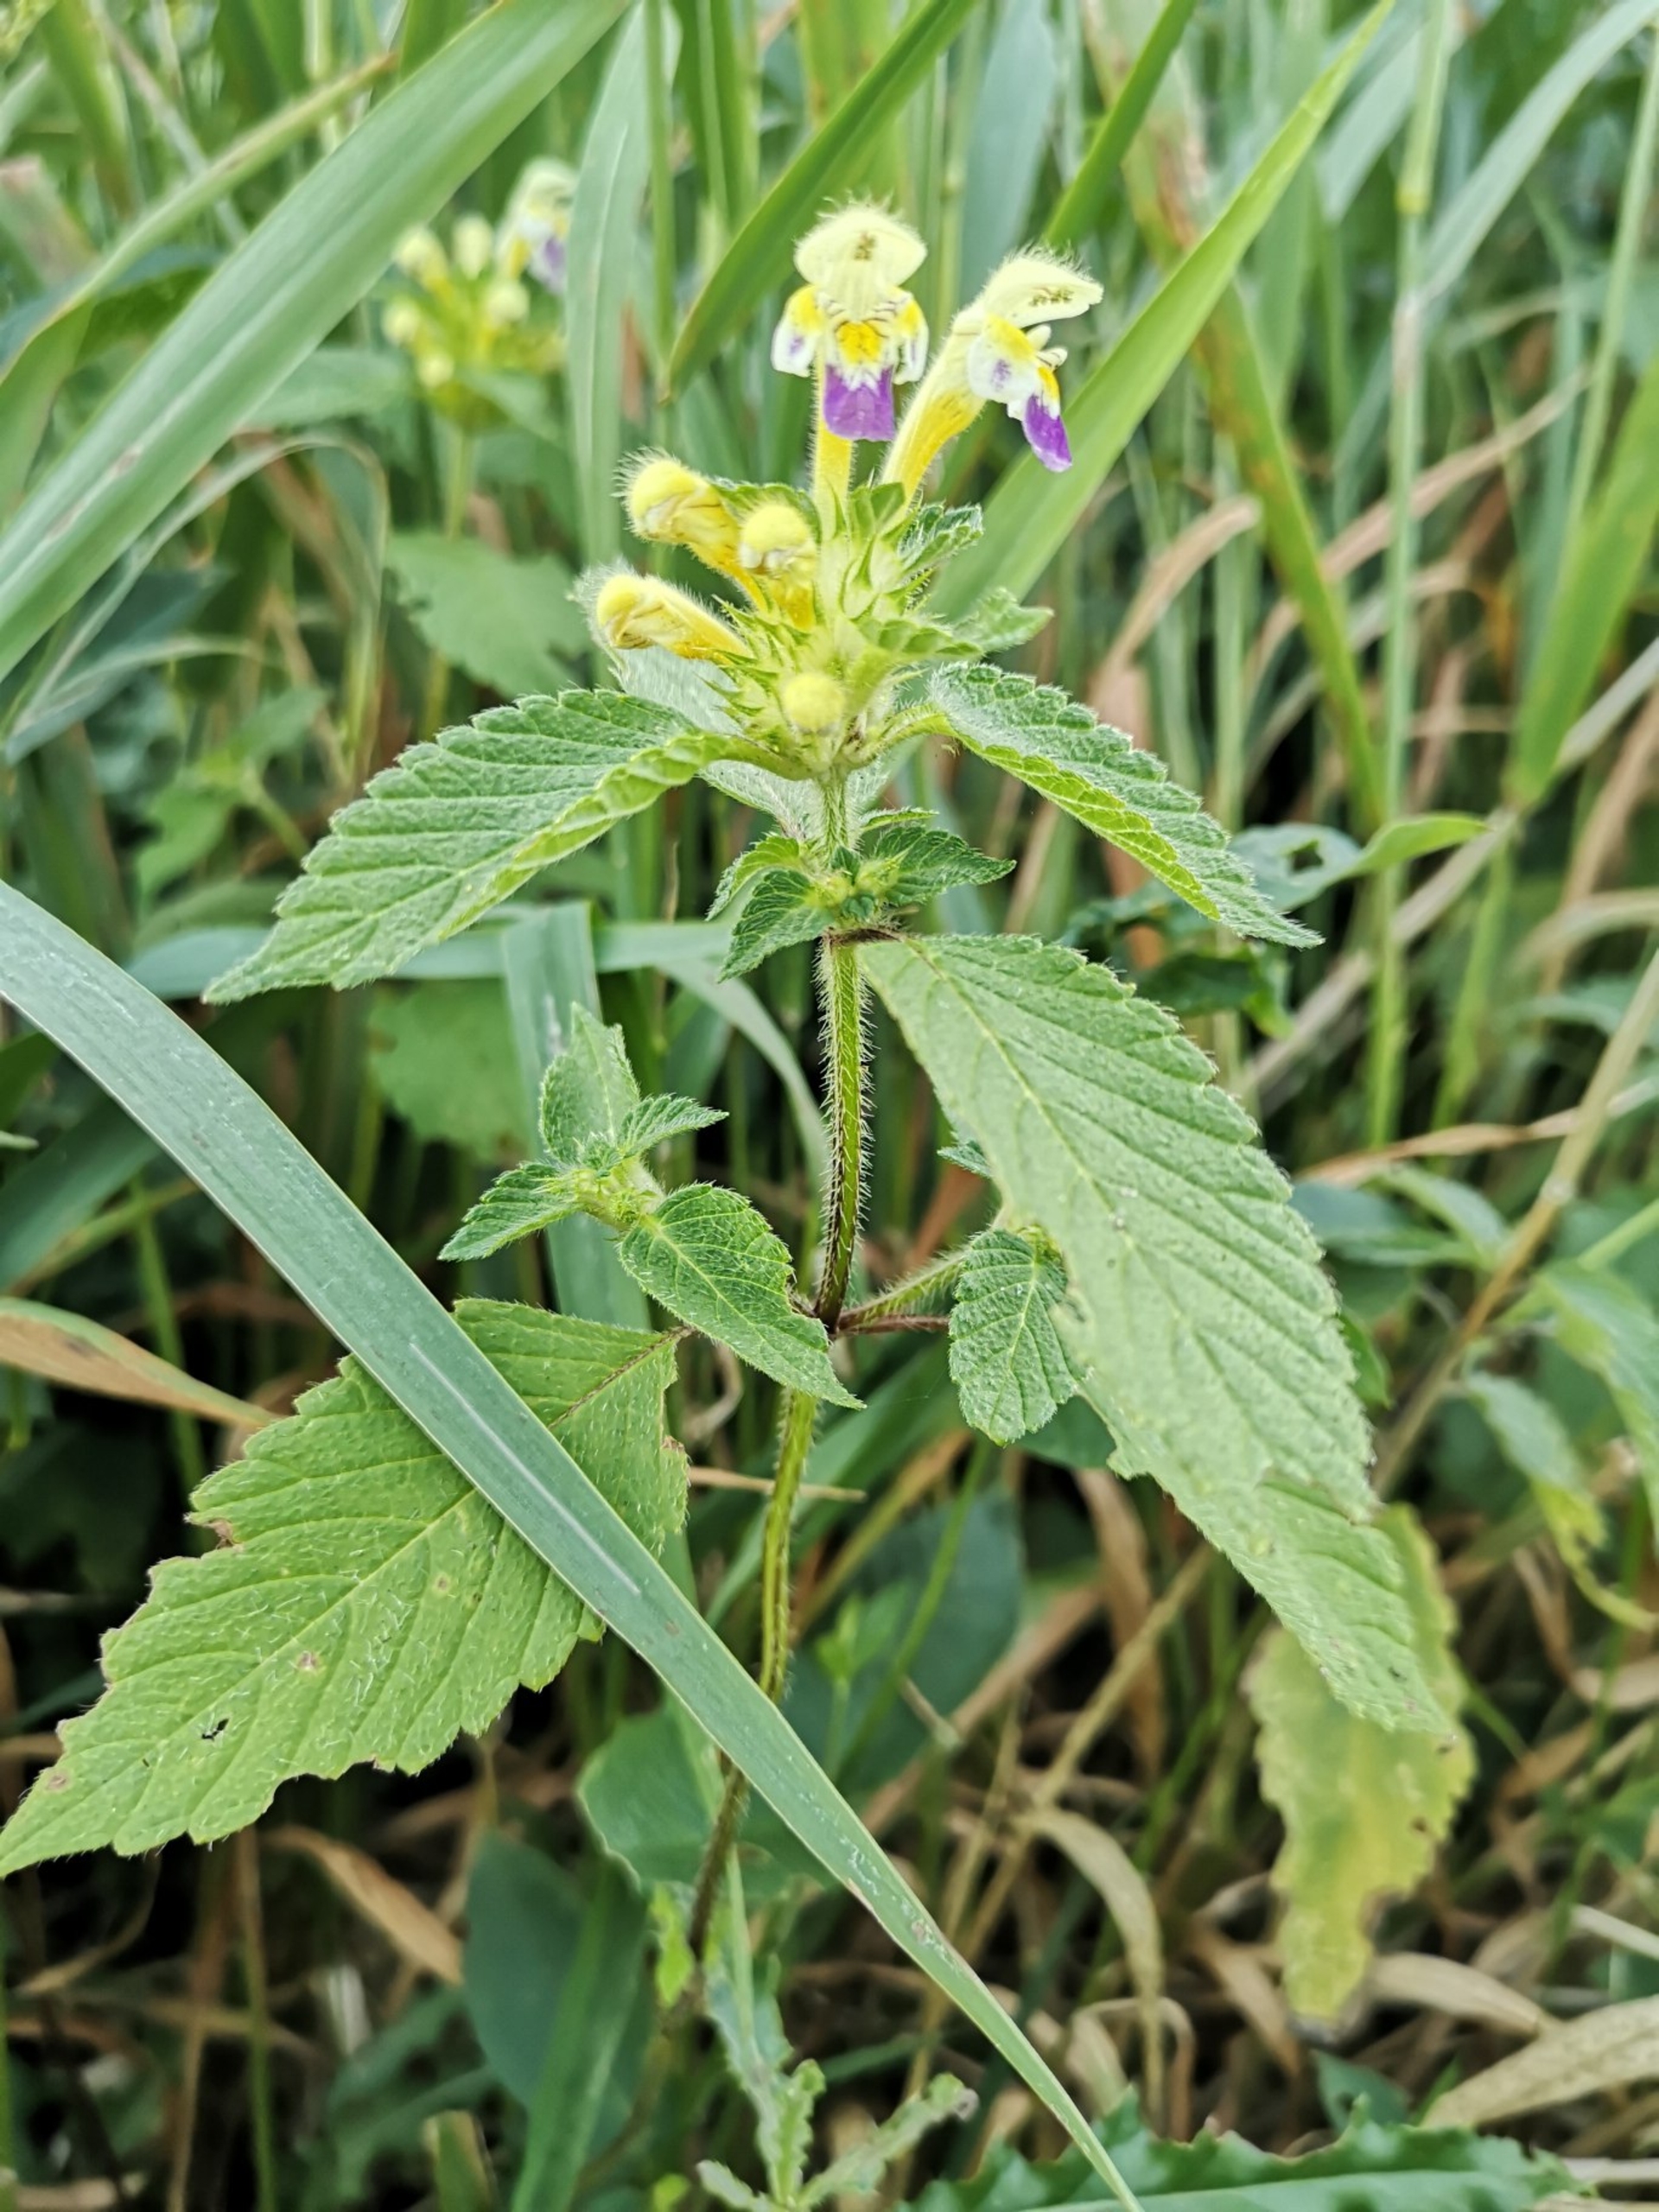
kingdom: Plantae
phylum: Tracheophyta
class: Magnoliopsida
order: Lamiales
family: Lamiaceae
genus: Galeopsis
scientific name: Galeopsis speciosa
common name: Hamp-hanekro
